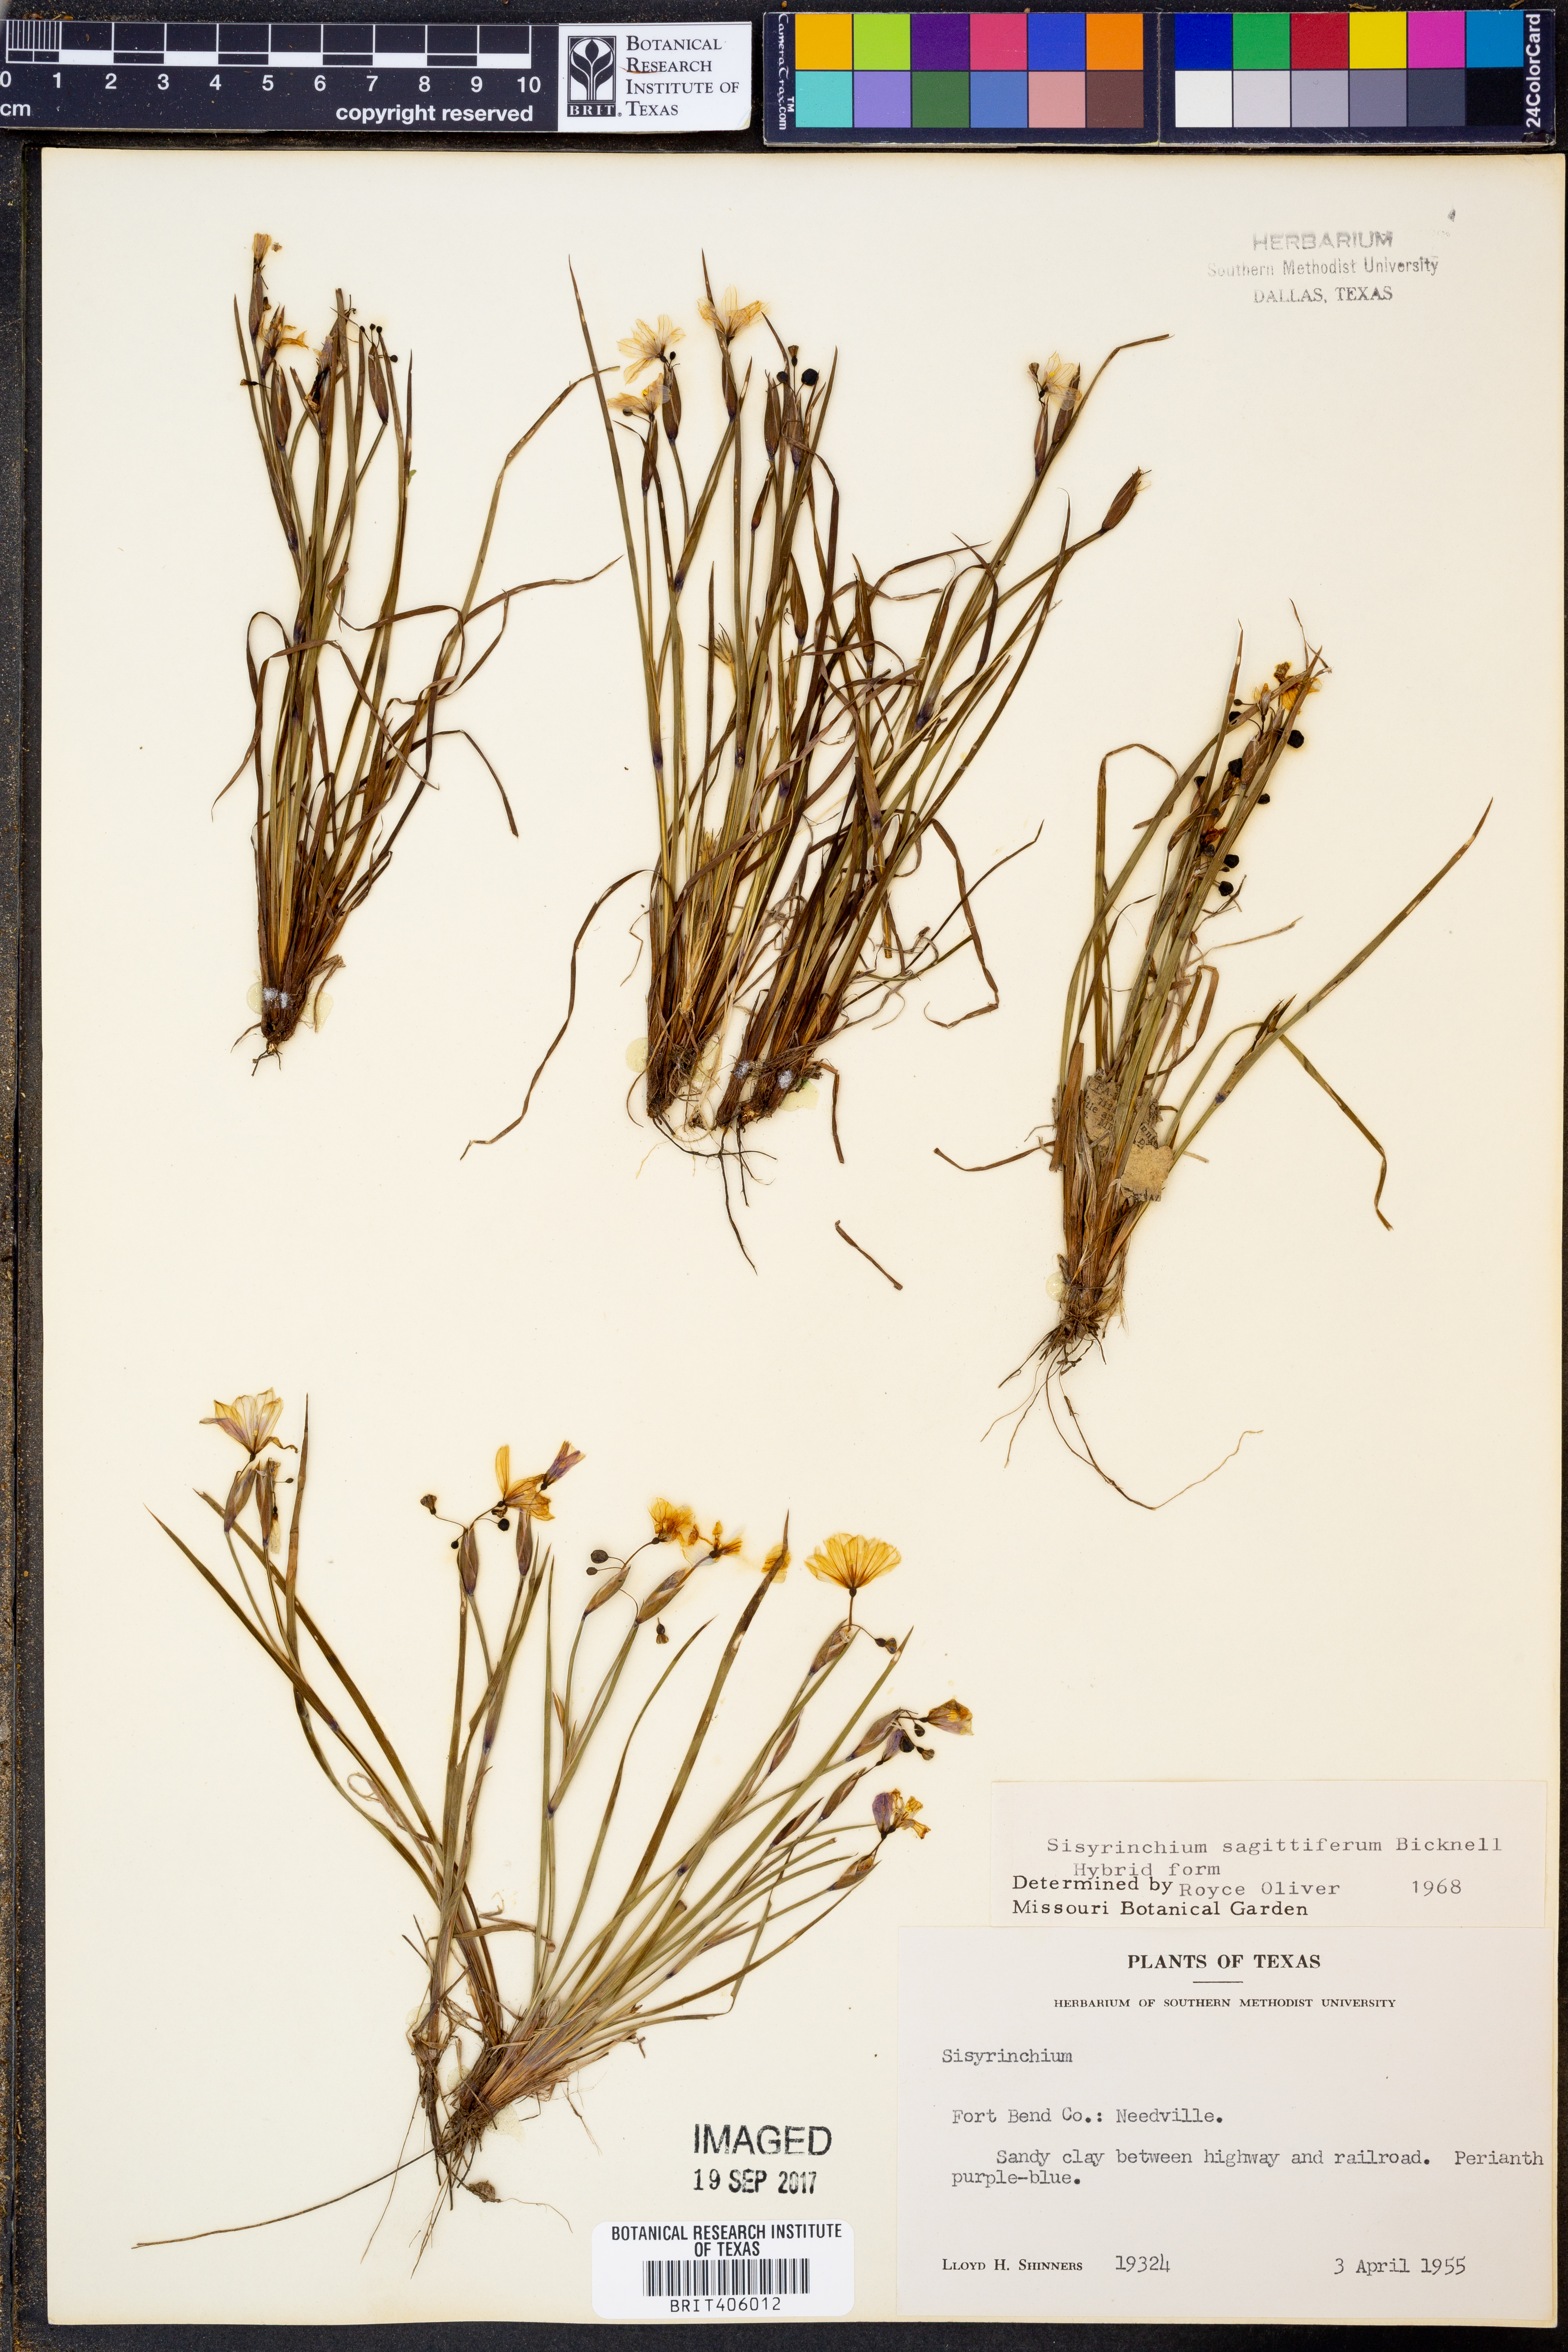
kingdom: Plantae
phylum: Tracheophyta
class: Liliopsida
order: Asparagales
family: Iridaceae
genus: Sisyrinchium
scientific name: Sisyrinchium sagittiferum
